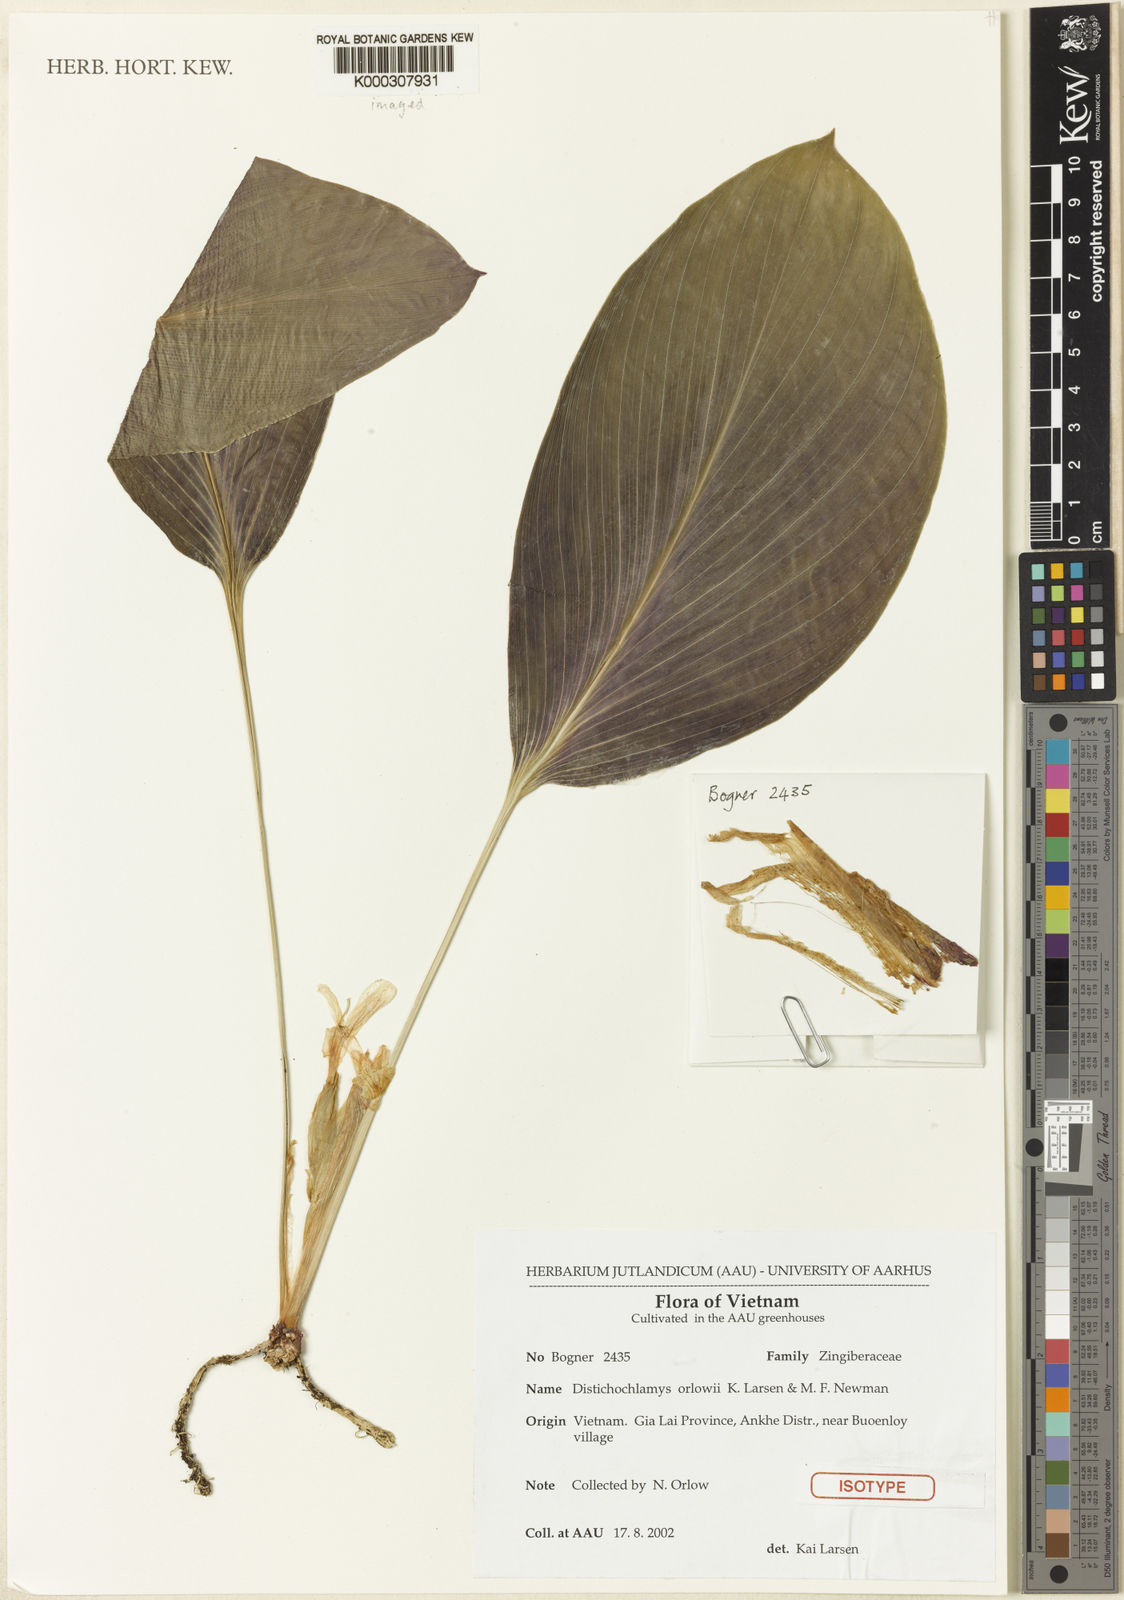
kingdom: Plantae
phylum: Tracheophyta
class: Liliopsida
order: Zingiberales
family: Zingiberaceae
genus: Distichochlamys
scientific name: Distichochlamys orlowii
